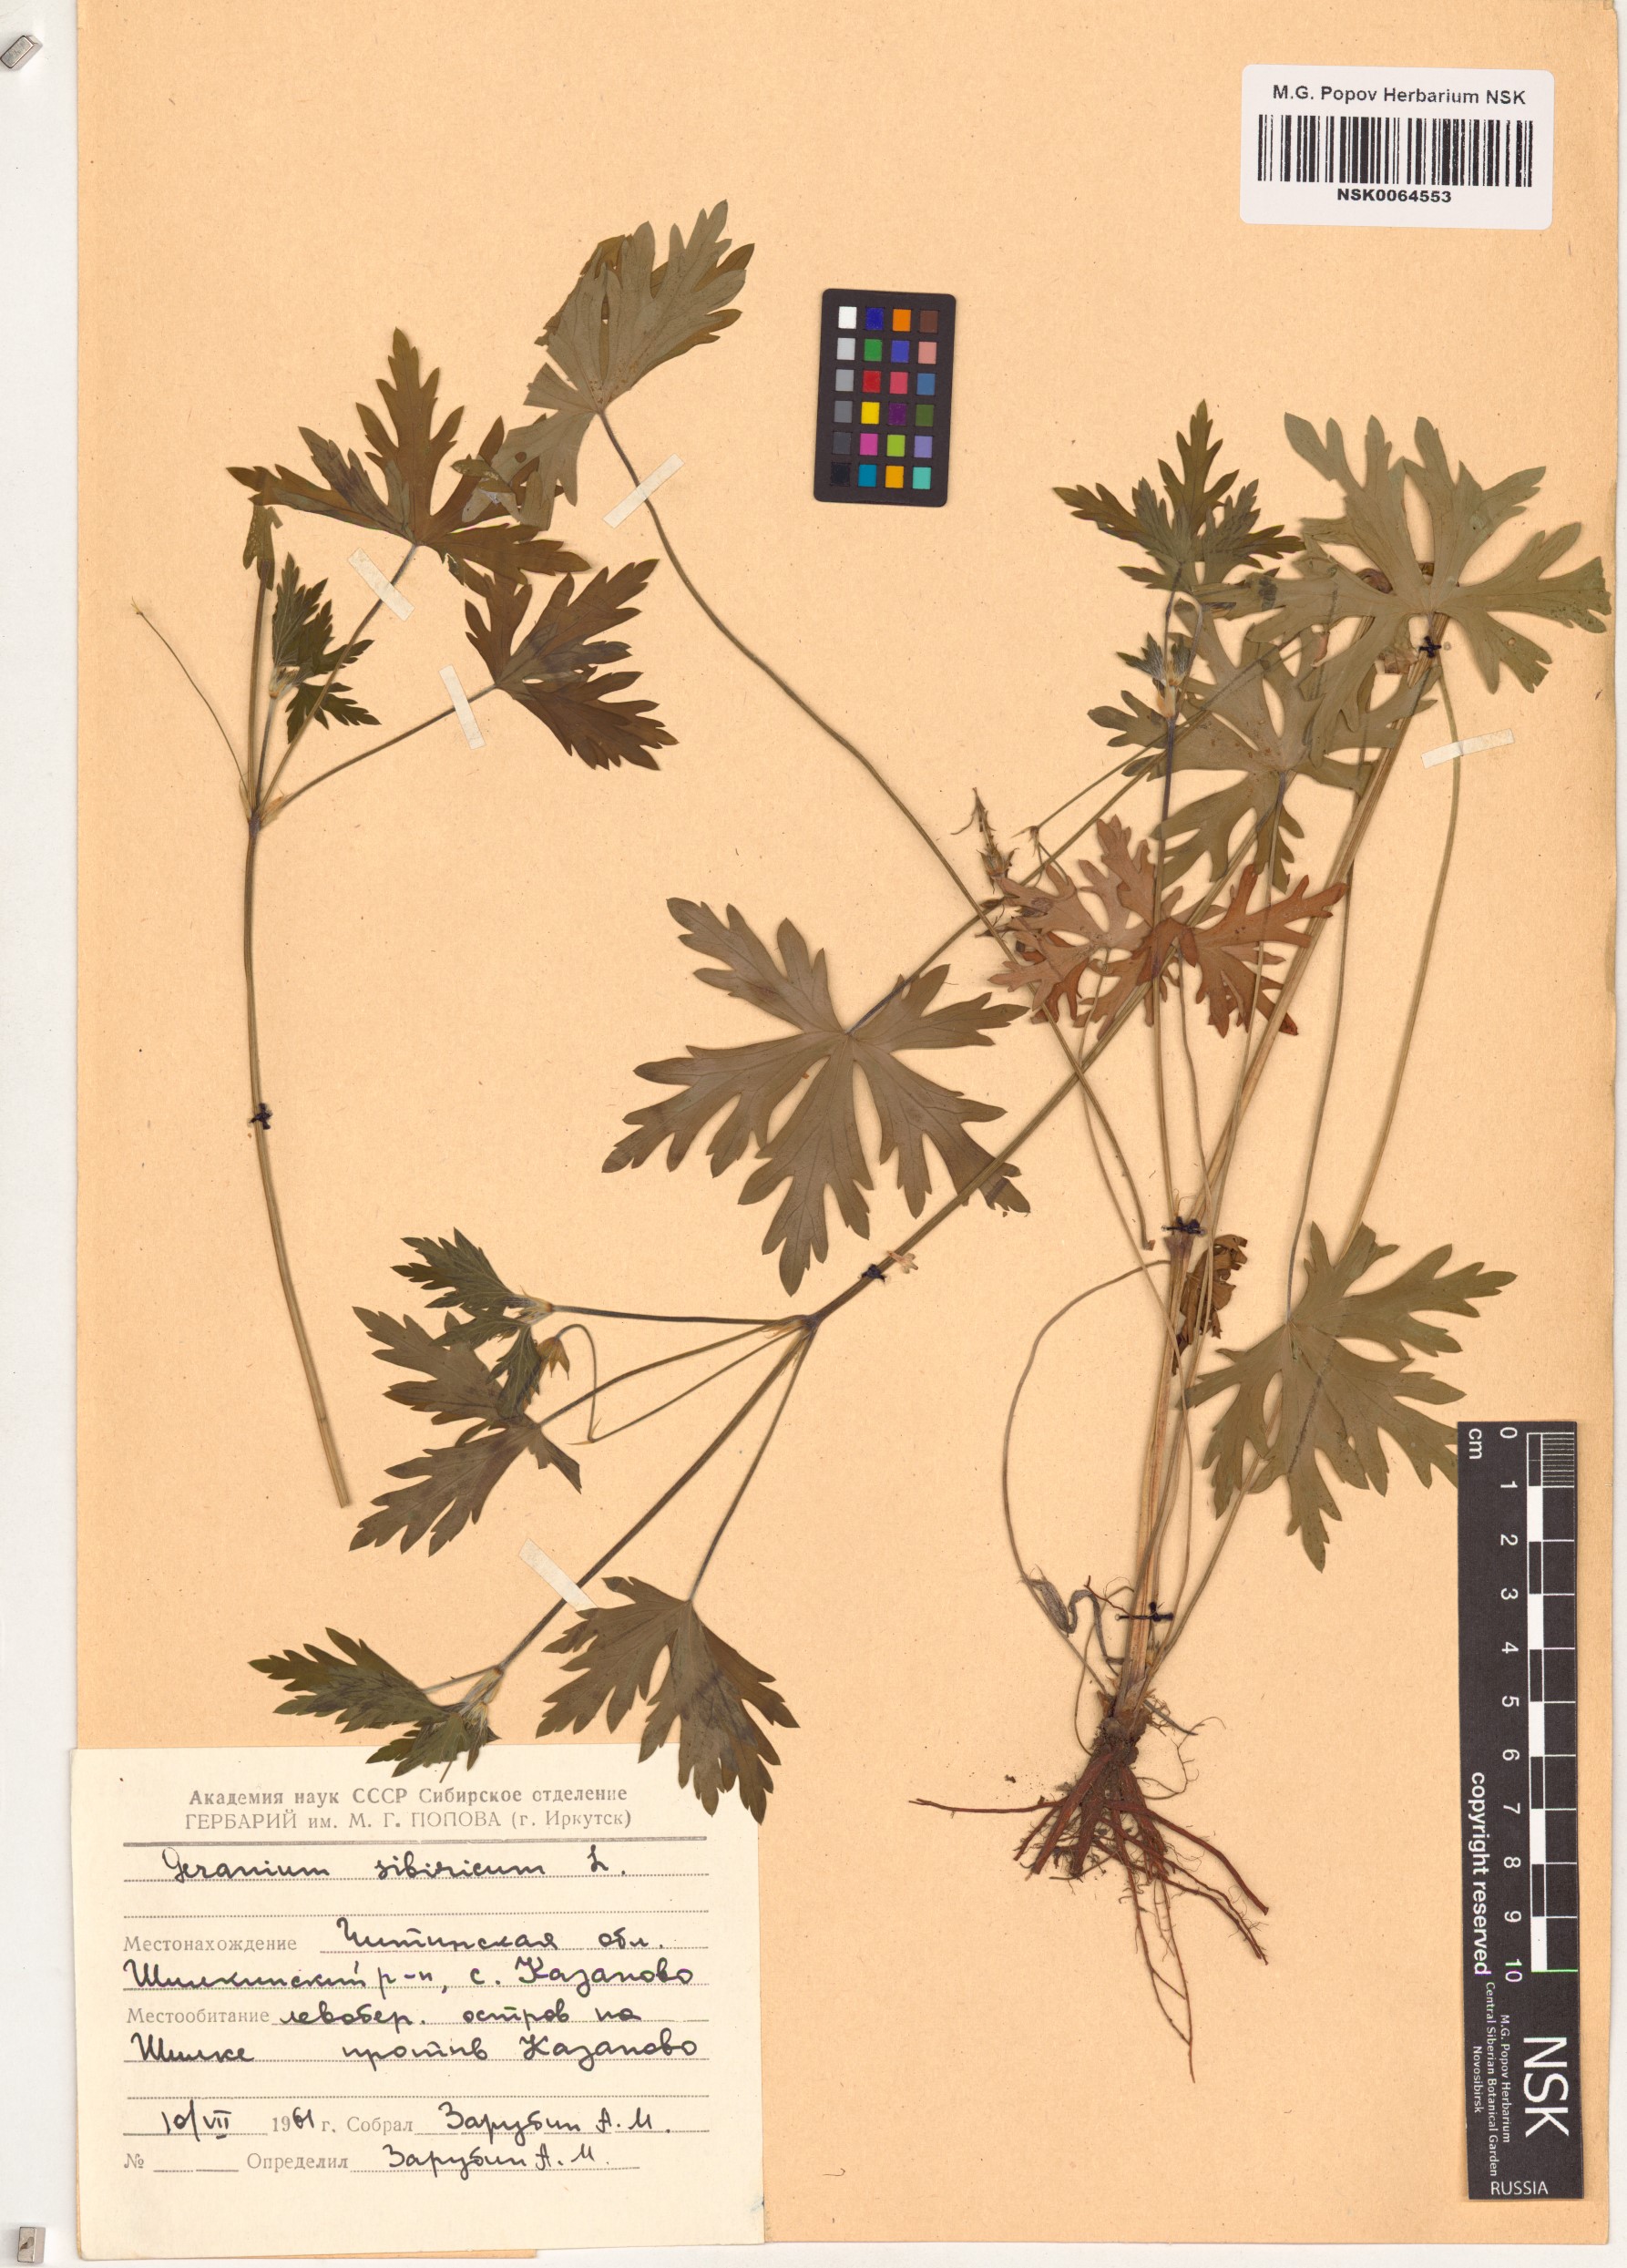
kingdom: Plantae
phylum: Tracheophyta
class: Magnoliopsida
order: Geraniales
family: Geraniaceae
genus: Geranium
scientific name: Geranium sibiricum
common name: Siberian crane's-bill
